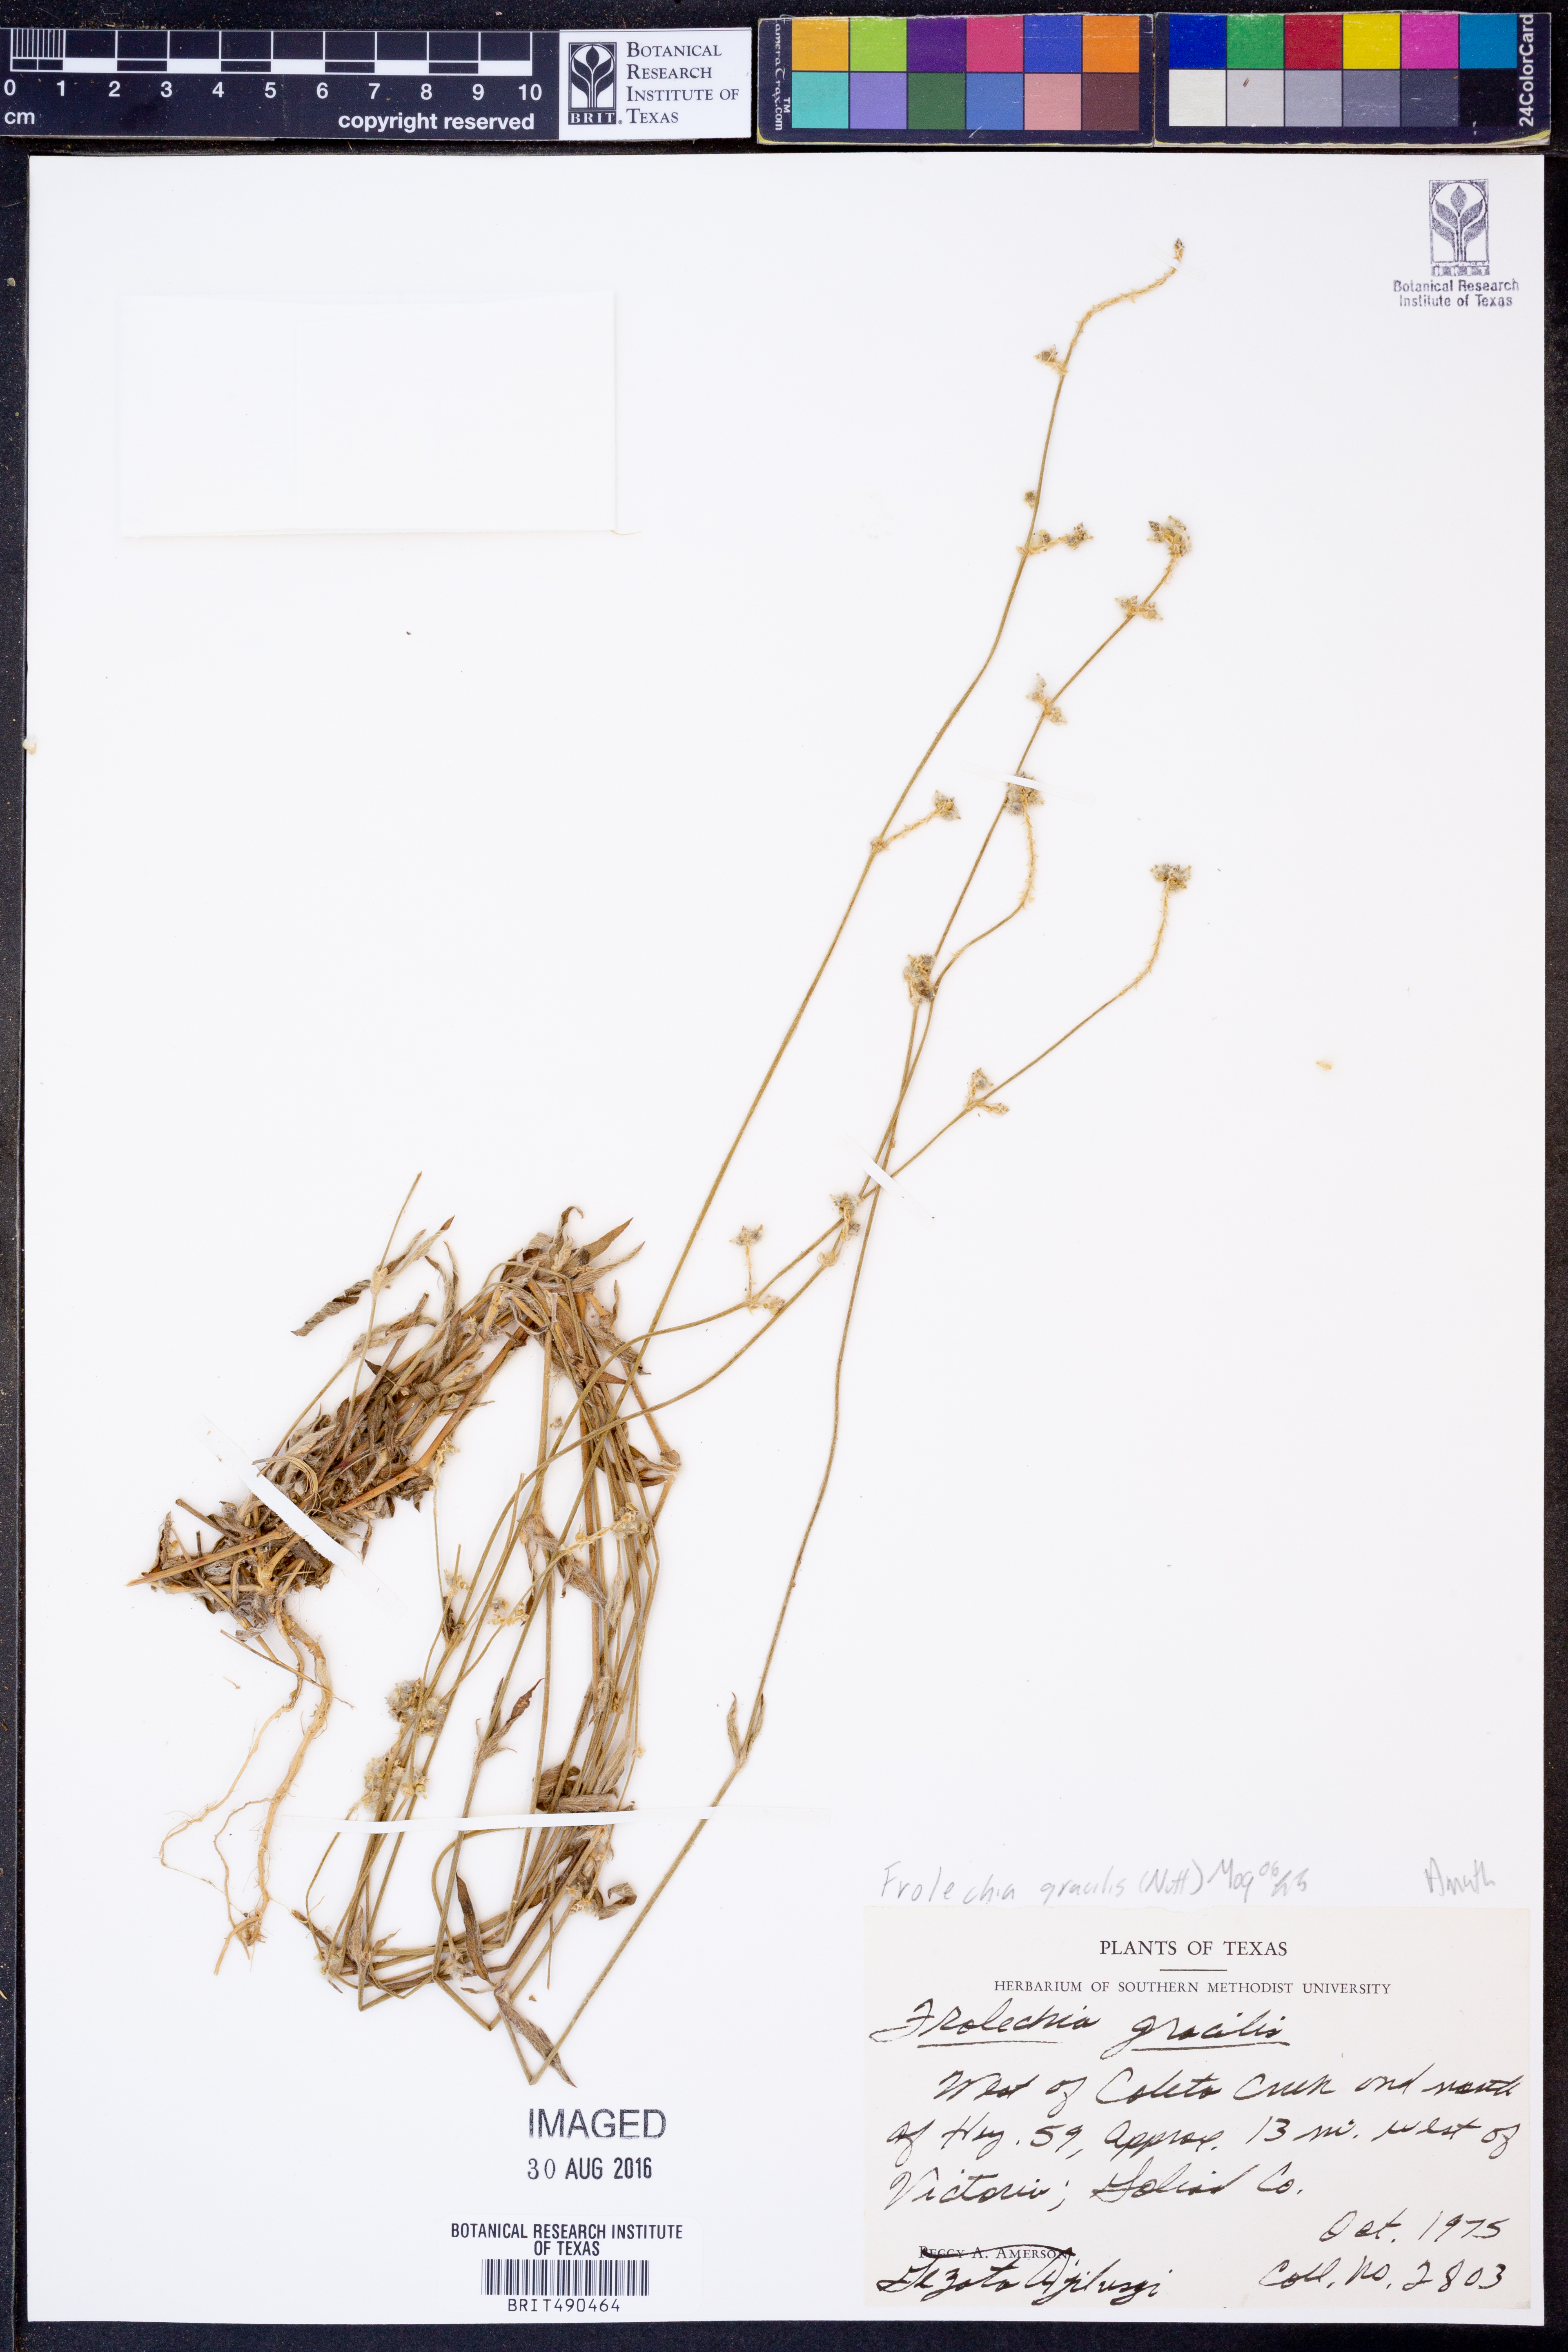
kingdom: Plantae
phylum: Tracheophyta
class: Magnoliopsida
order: Caryophyllales
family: Amaranthaceae
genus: Froelichia
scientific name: Froelichia gracilis
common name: Slender cottonweed
